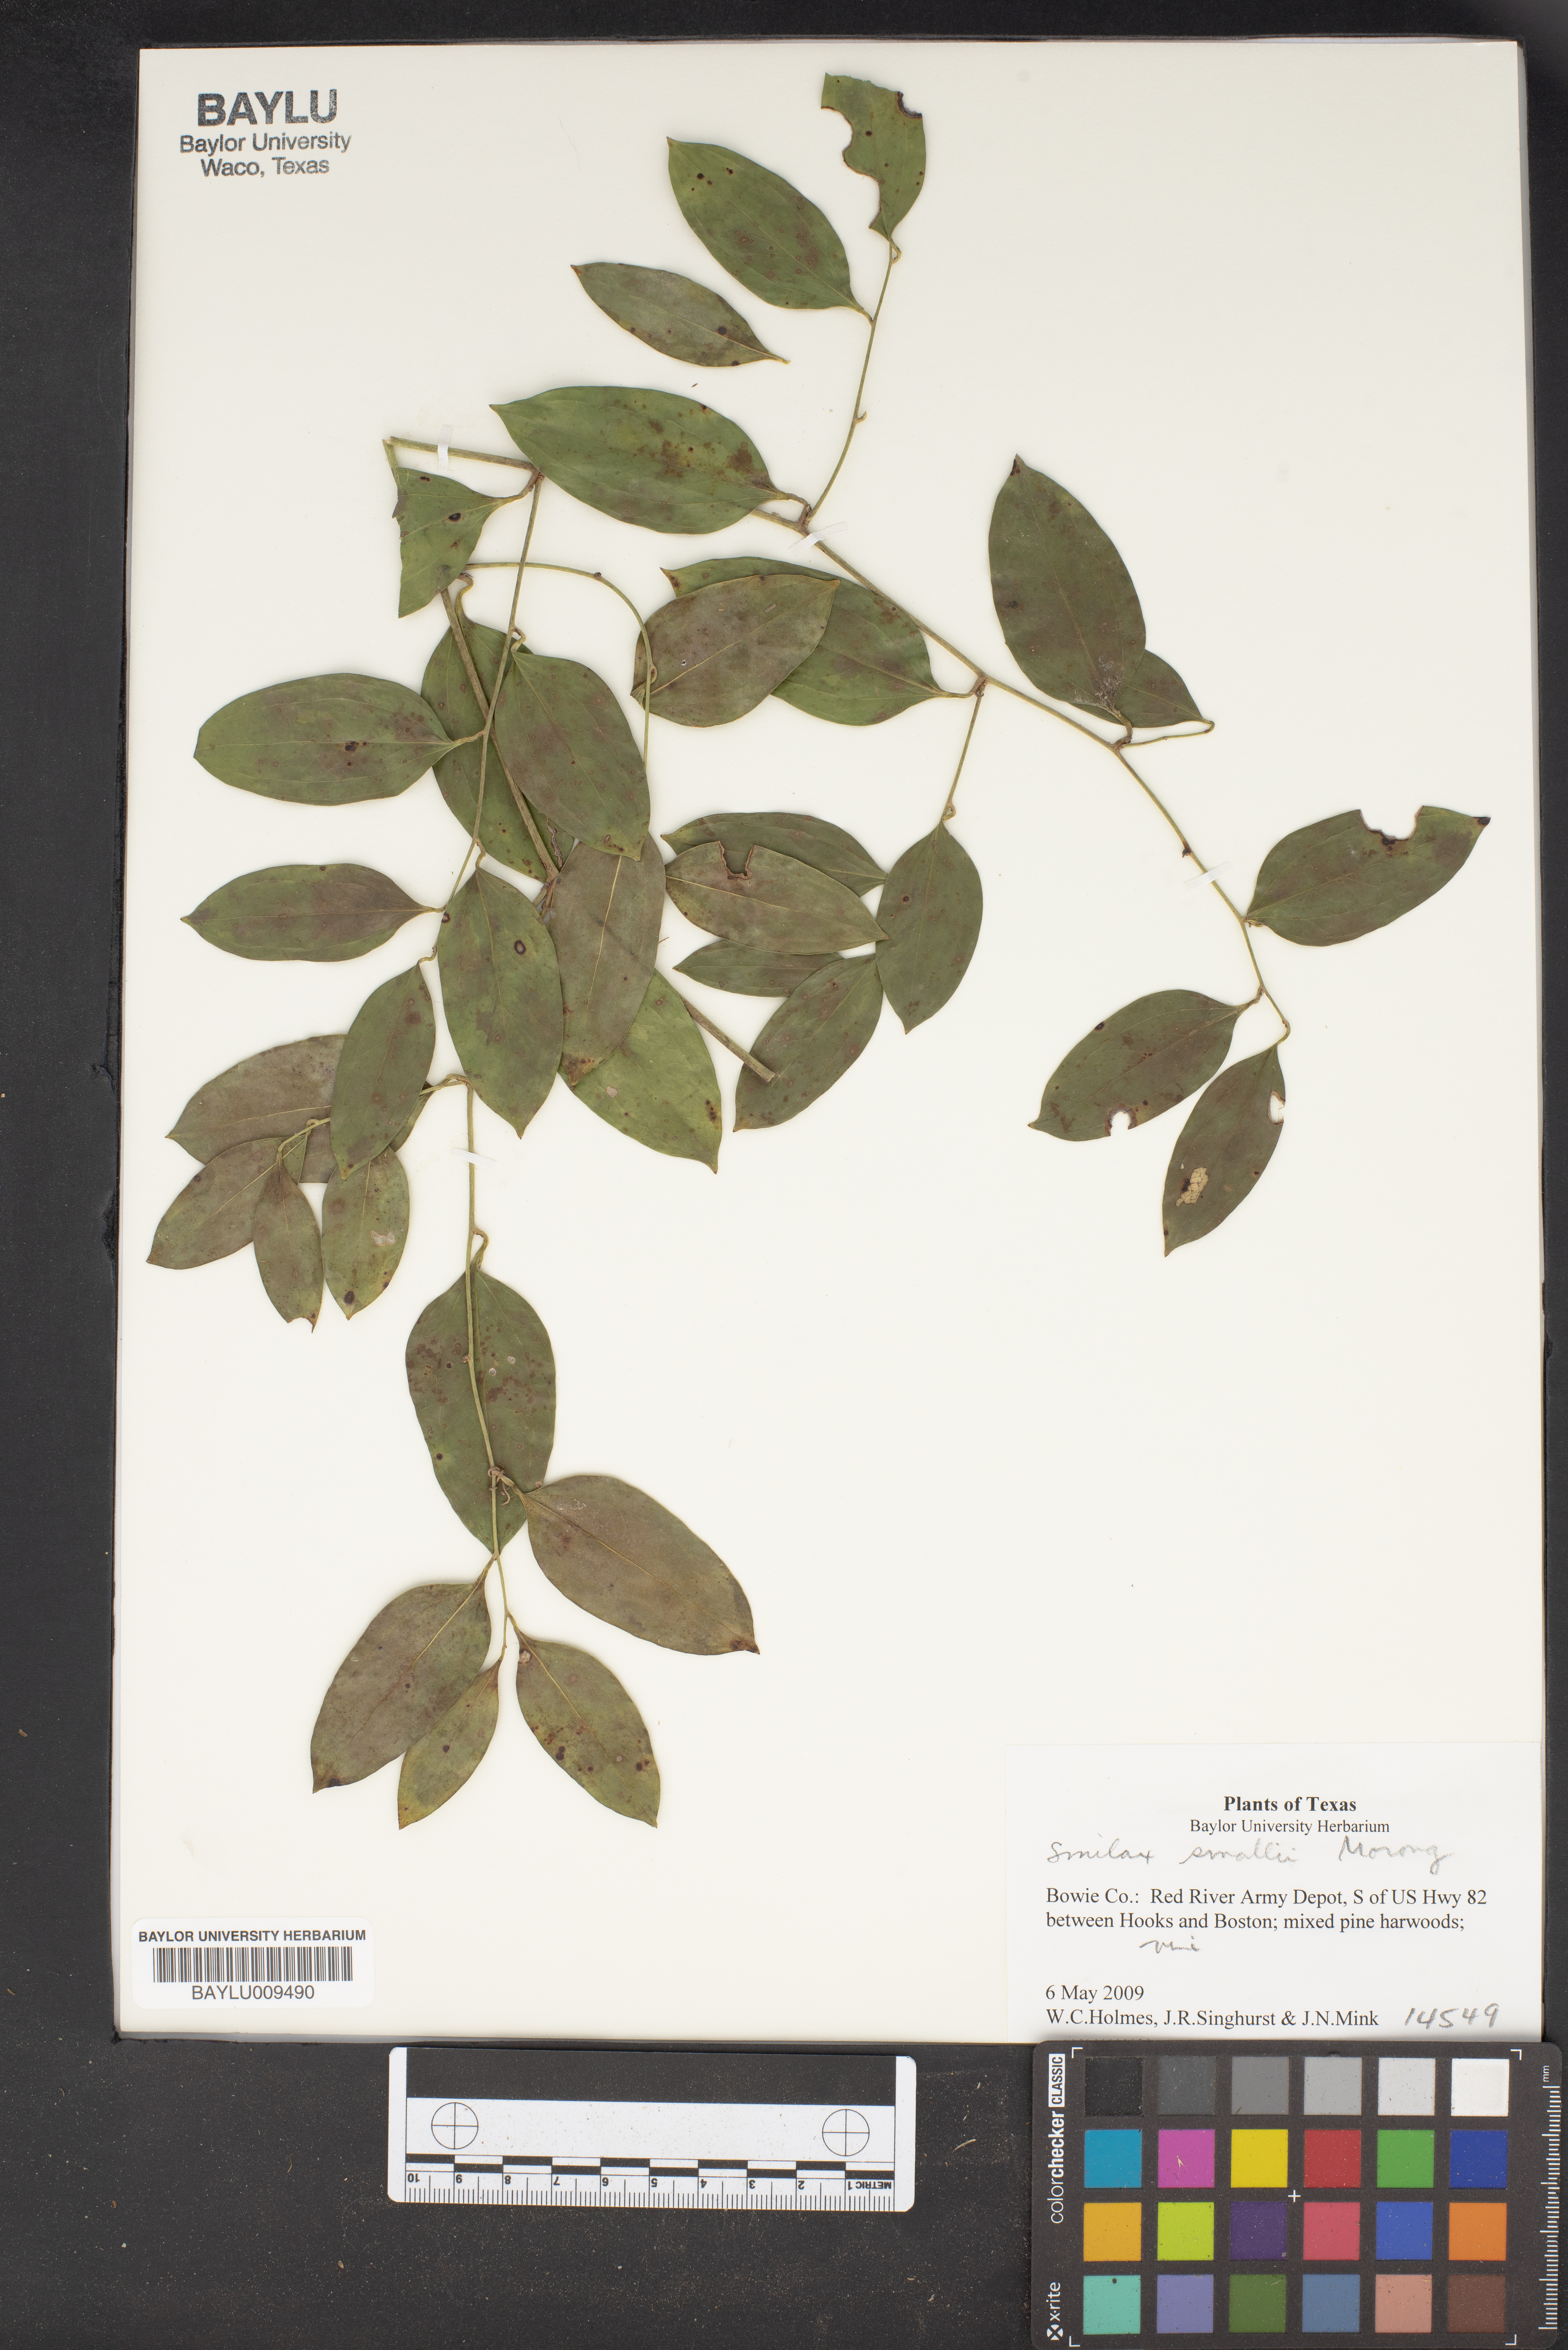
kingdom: Plantae
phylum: Tracheophyta
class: Liliopsida
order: Liliales
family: Smilacaceae
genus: Smilax
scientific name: Smilax maritima
